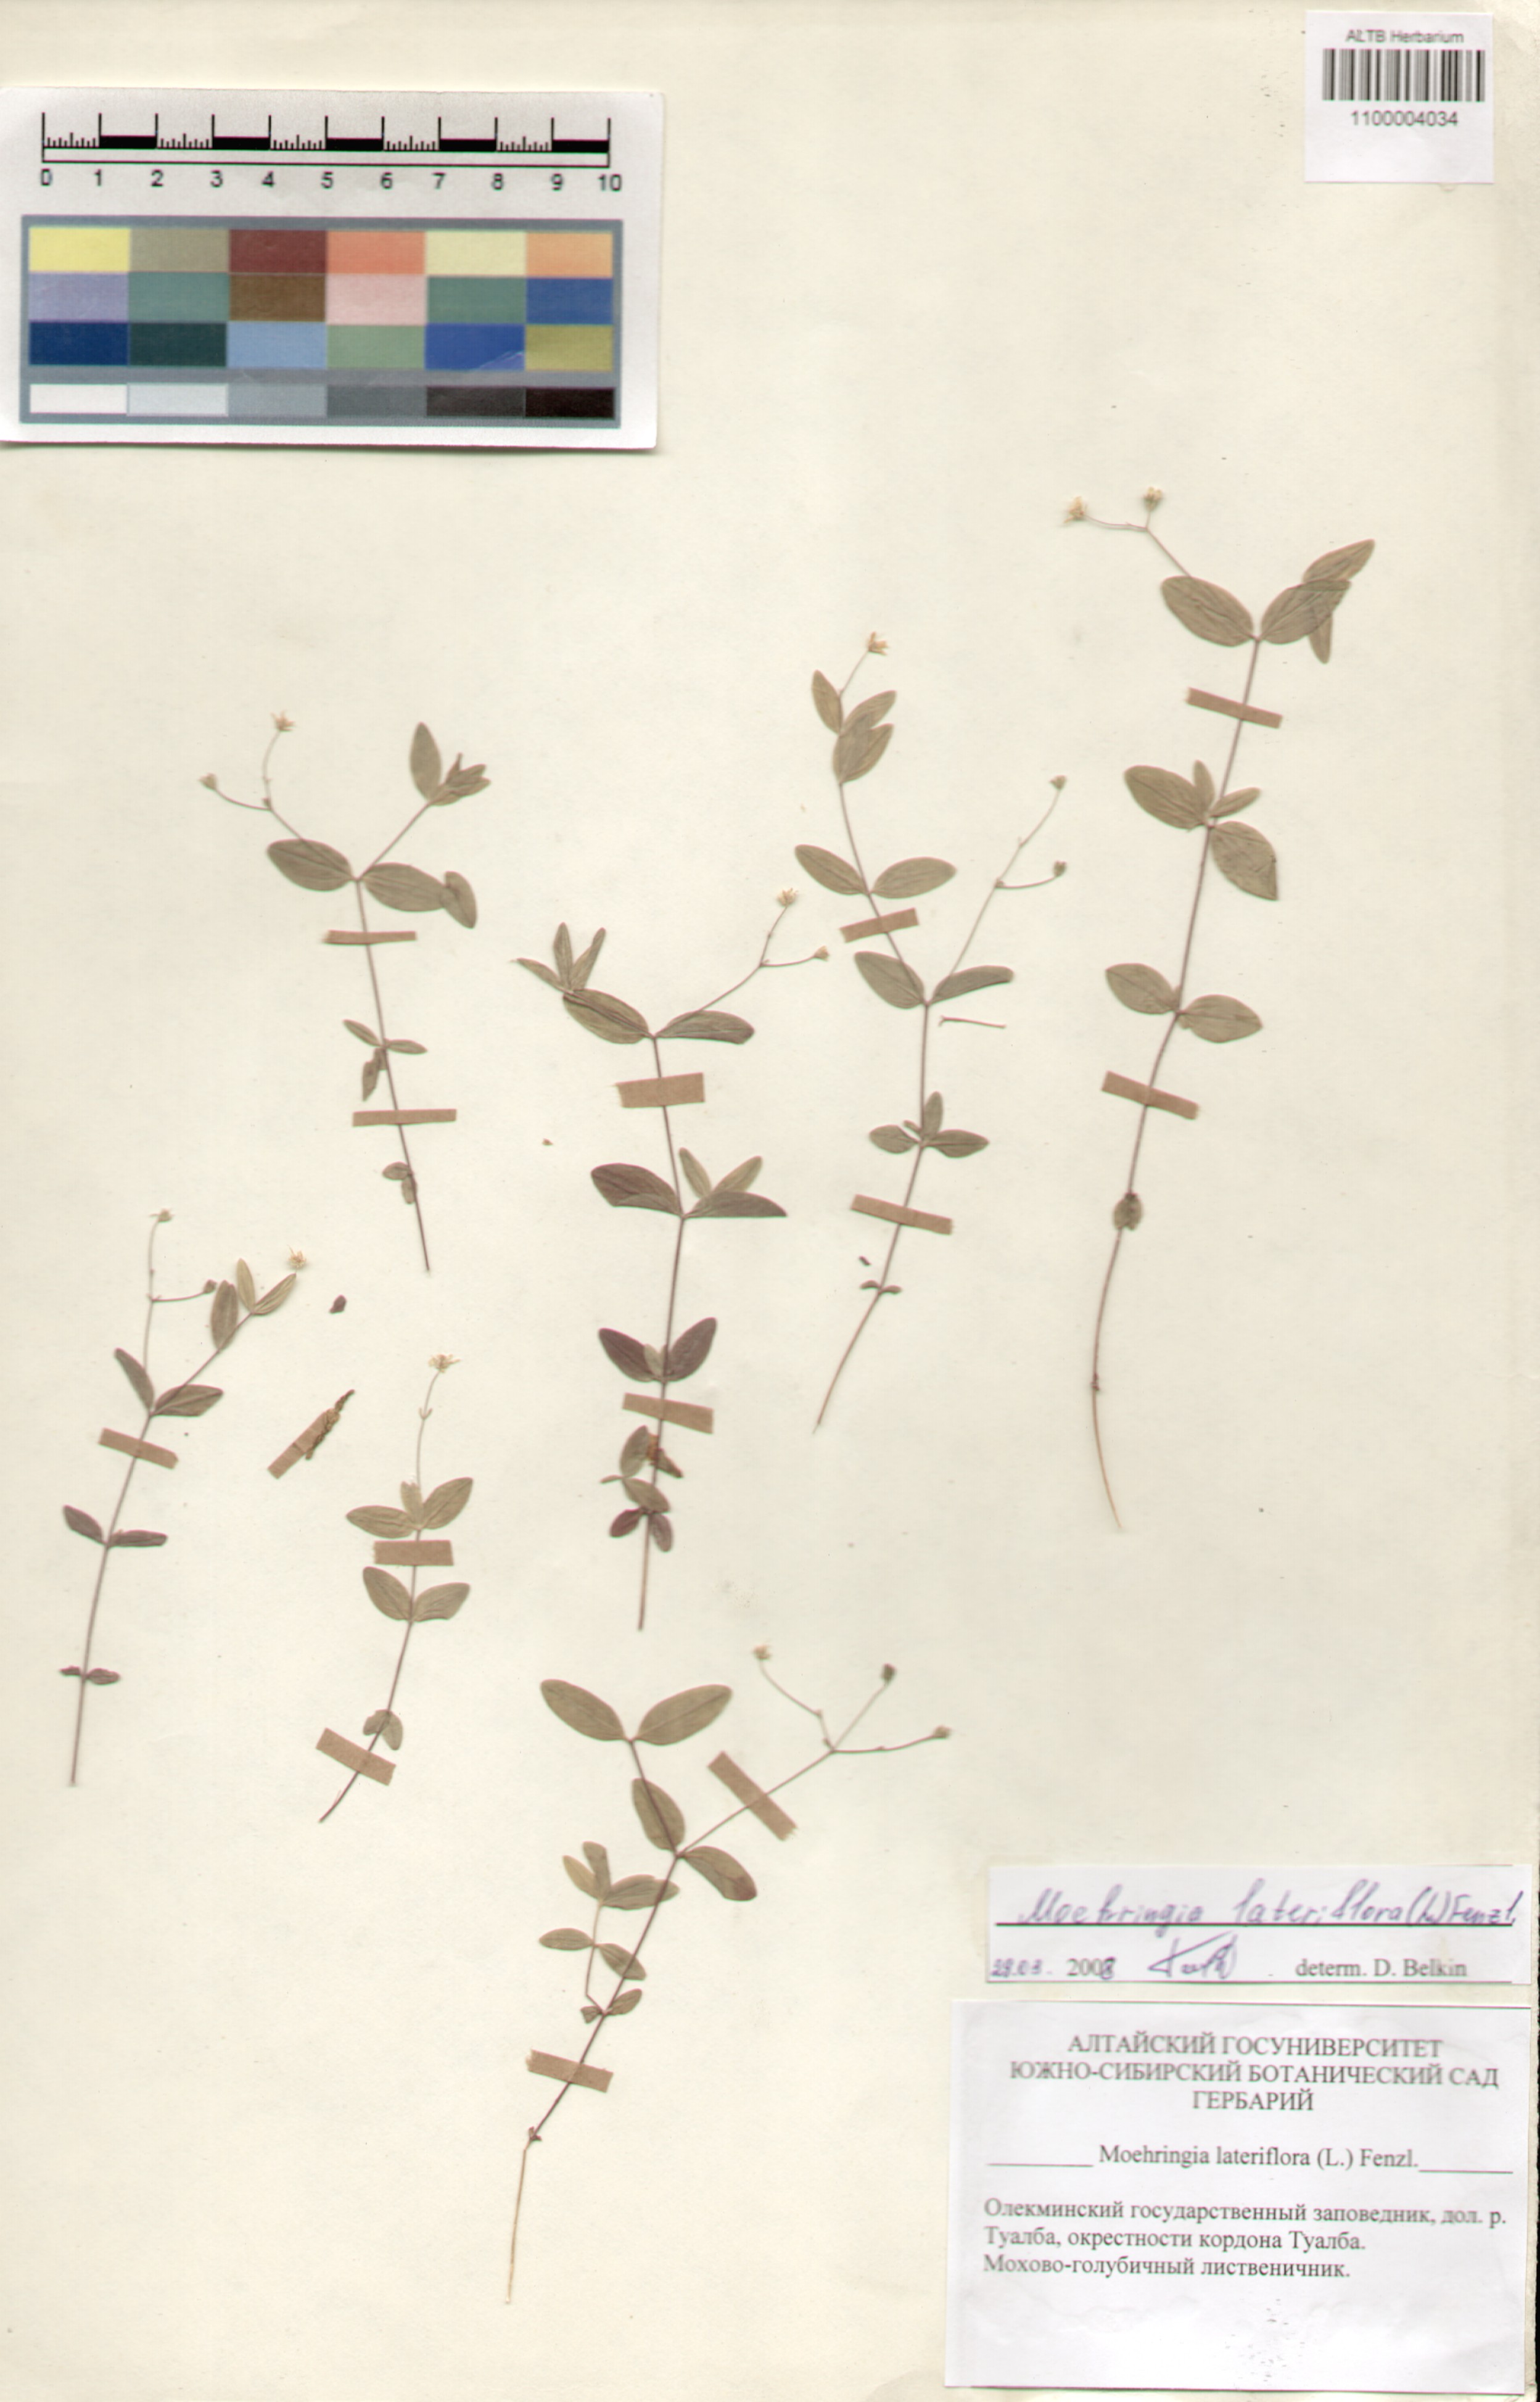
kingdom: Plantae
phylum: Tracheophyta
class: Magnoliopsida
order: Caryophyllales
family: Caryophyllaceae
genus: Moehringia
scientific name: Moehringia lateriflora
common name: Blunt-leaved sandwort
